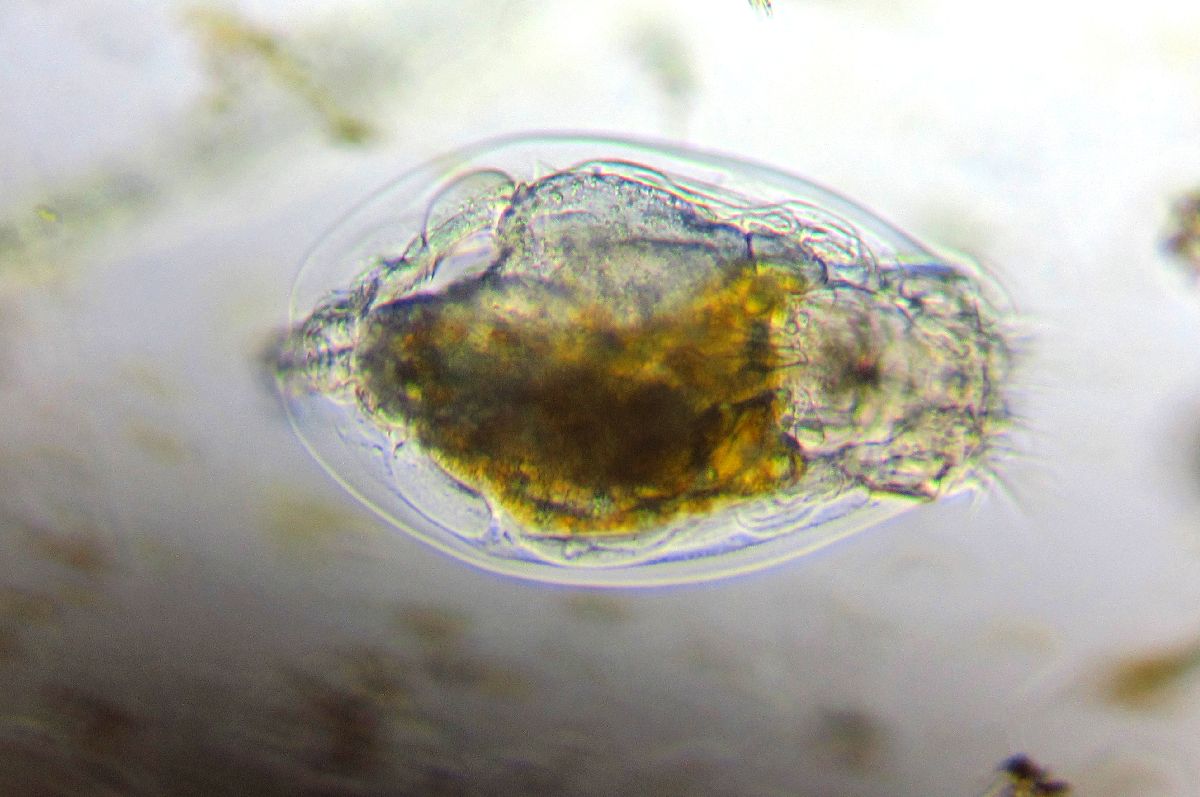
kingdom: Animalia
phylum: Rotifera
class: Eurotatoria
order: Ploima
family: Euchlanidae
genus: Euchlanis
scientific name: Euchlanis dilatata
